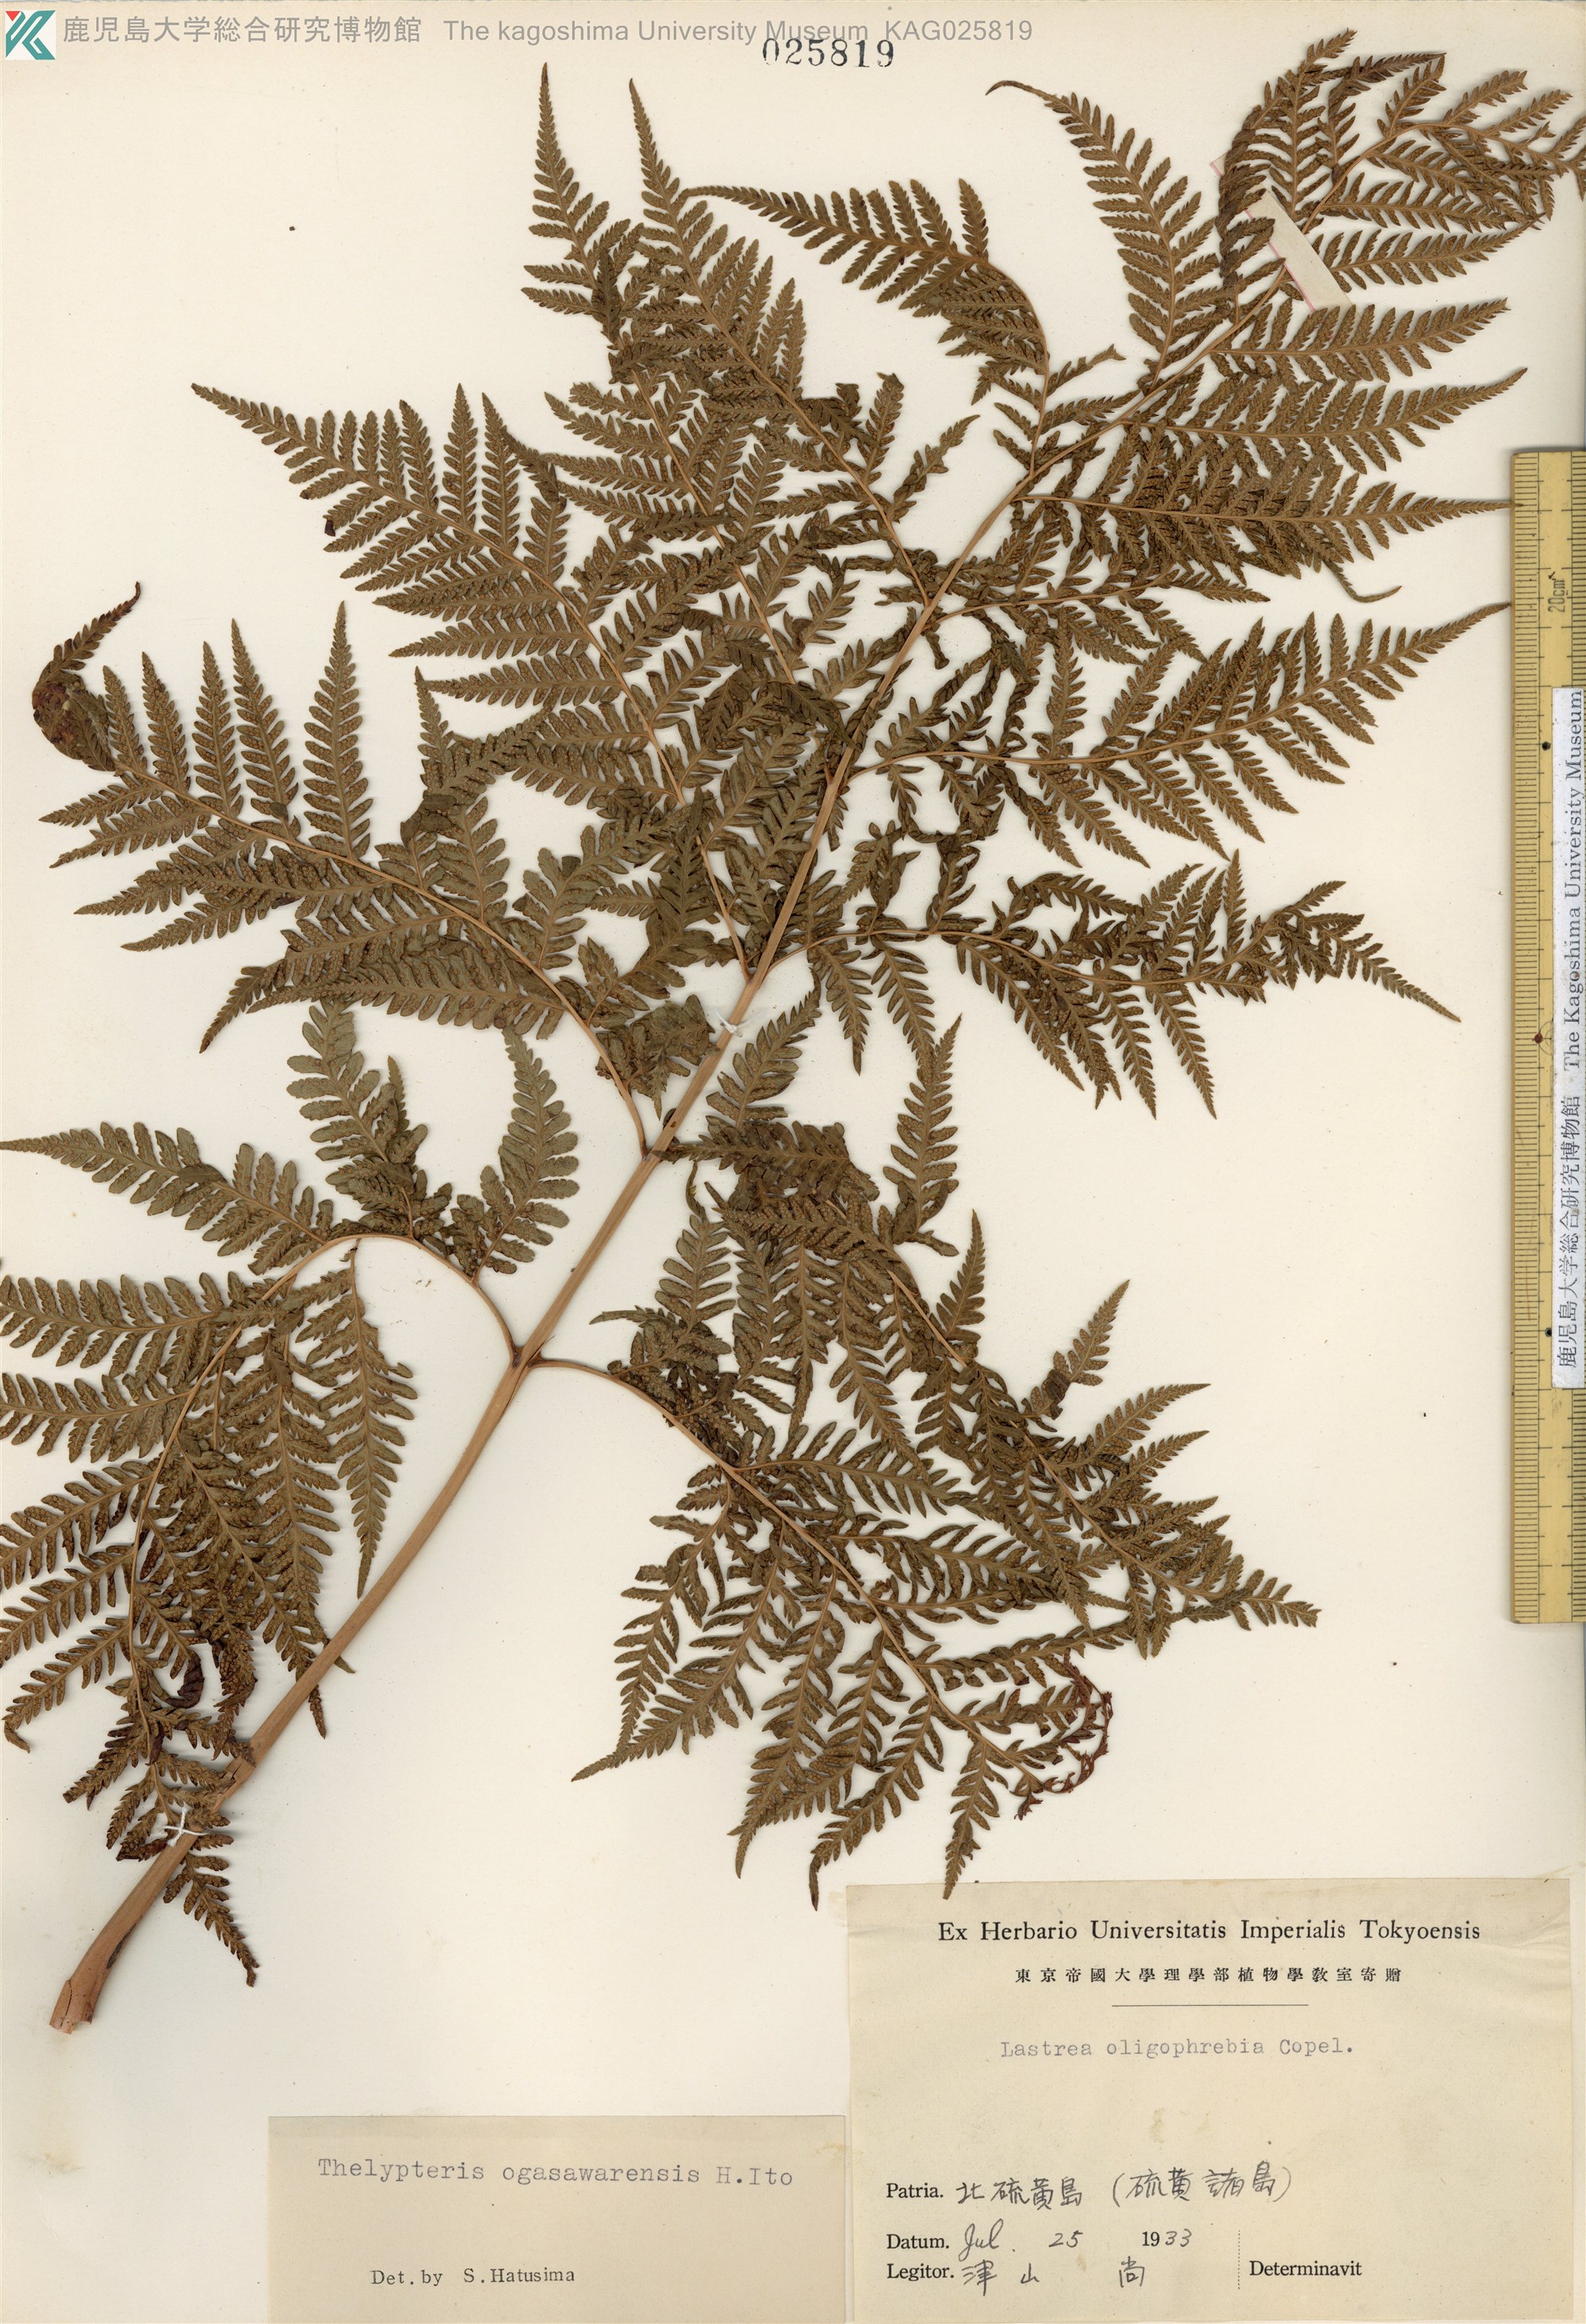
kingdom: Plantae
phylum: Tracheophyta
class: Polypodiopsida
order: Polypodiales
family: Thelypteridaceae
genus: Macrothelypteris
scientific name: Macrothelypteris ogasawarensis
